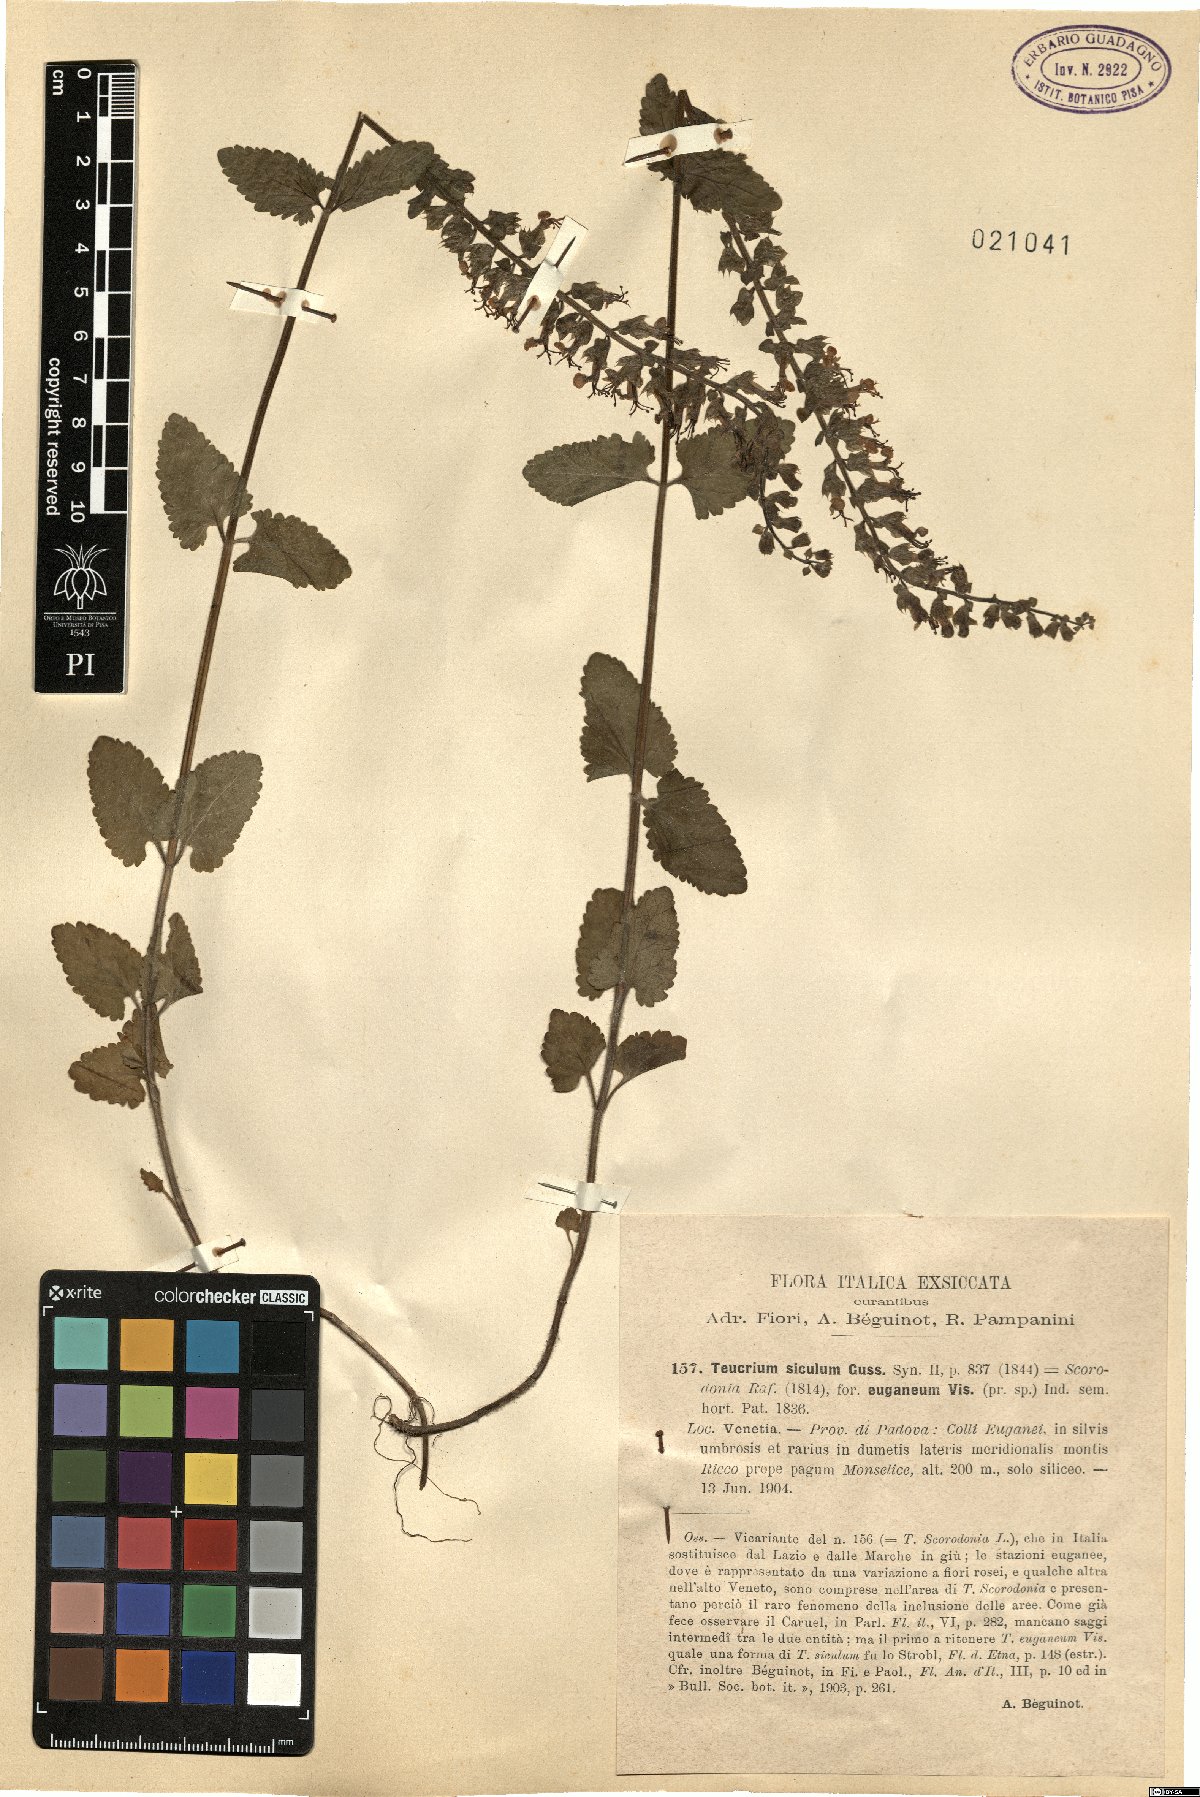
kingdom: Plantae
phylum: Tracheophyta
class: Magnoliopsida
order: Lamiales
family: Lamiaceae
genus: Teucrium
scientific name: Teucrium siculum
